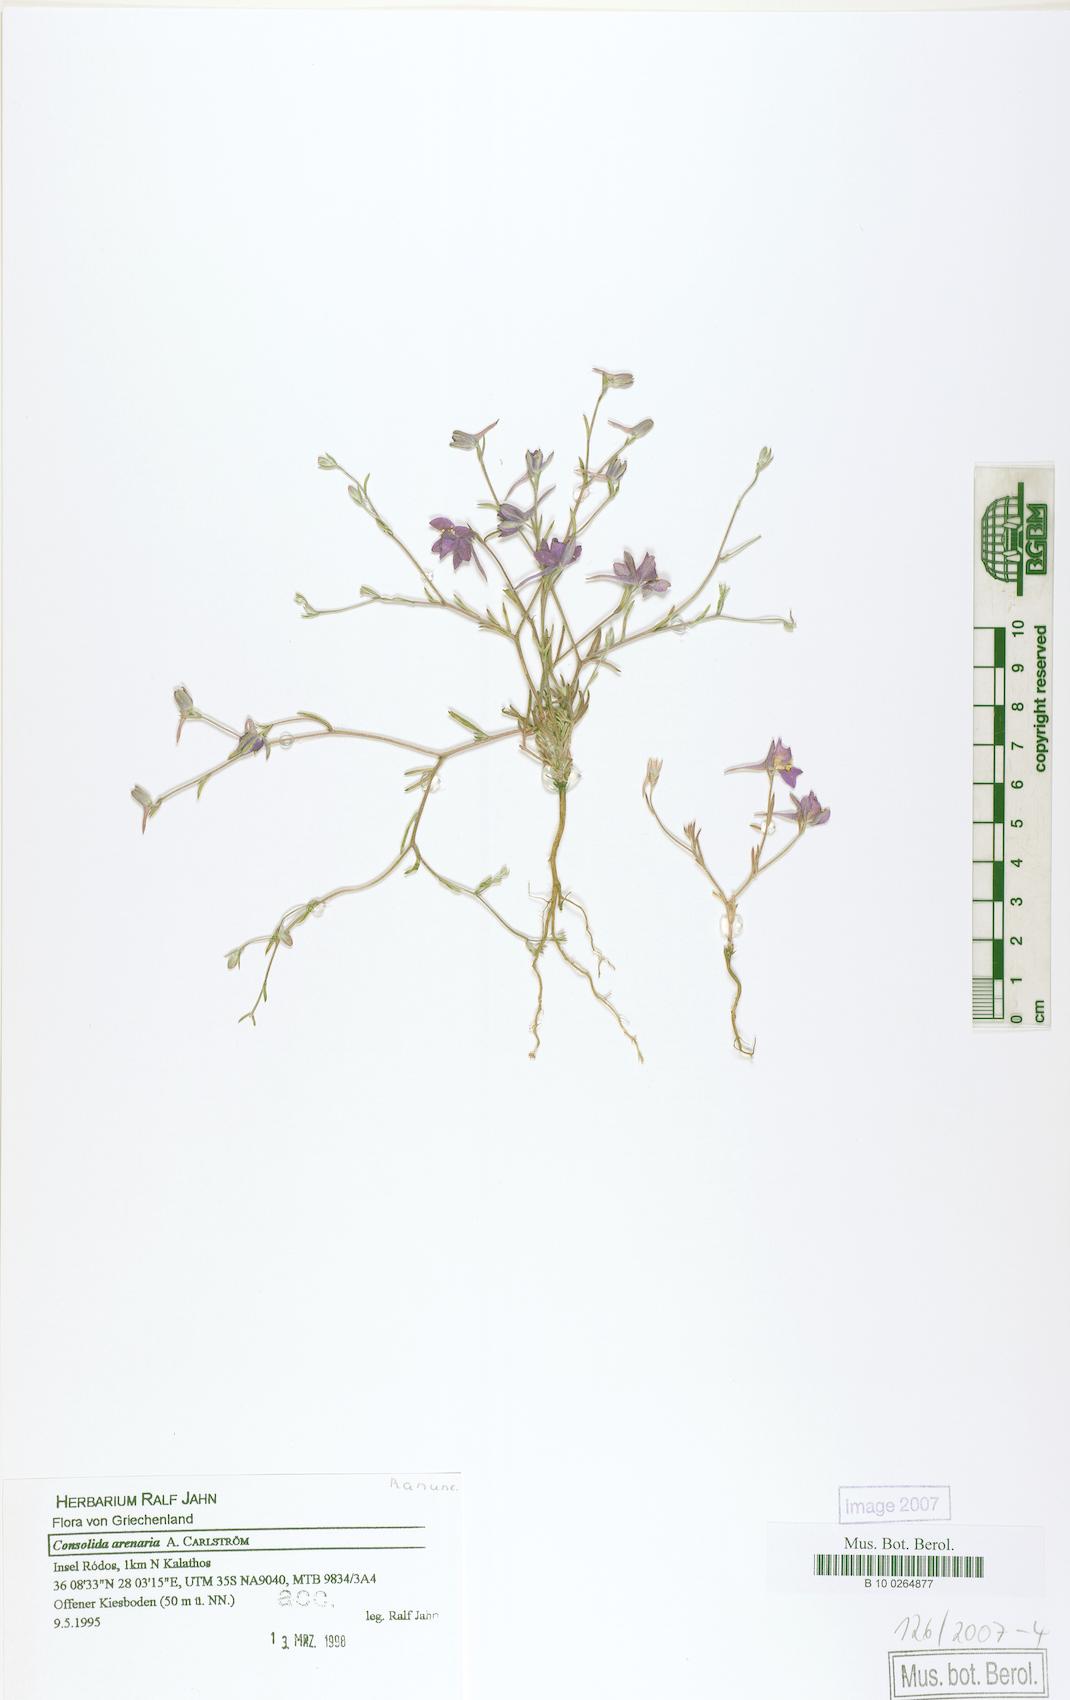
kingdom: Plantae
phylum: Tracheophyta
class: Magnoliopsida
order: Ranunculales
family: Ranunculaceae
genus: Delphinium
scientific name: Delphinium arenarium
